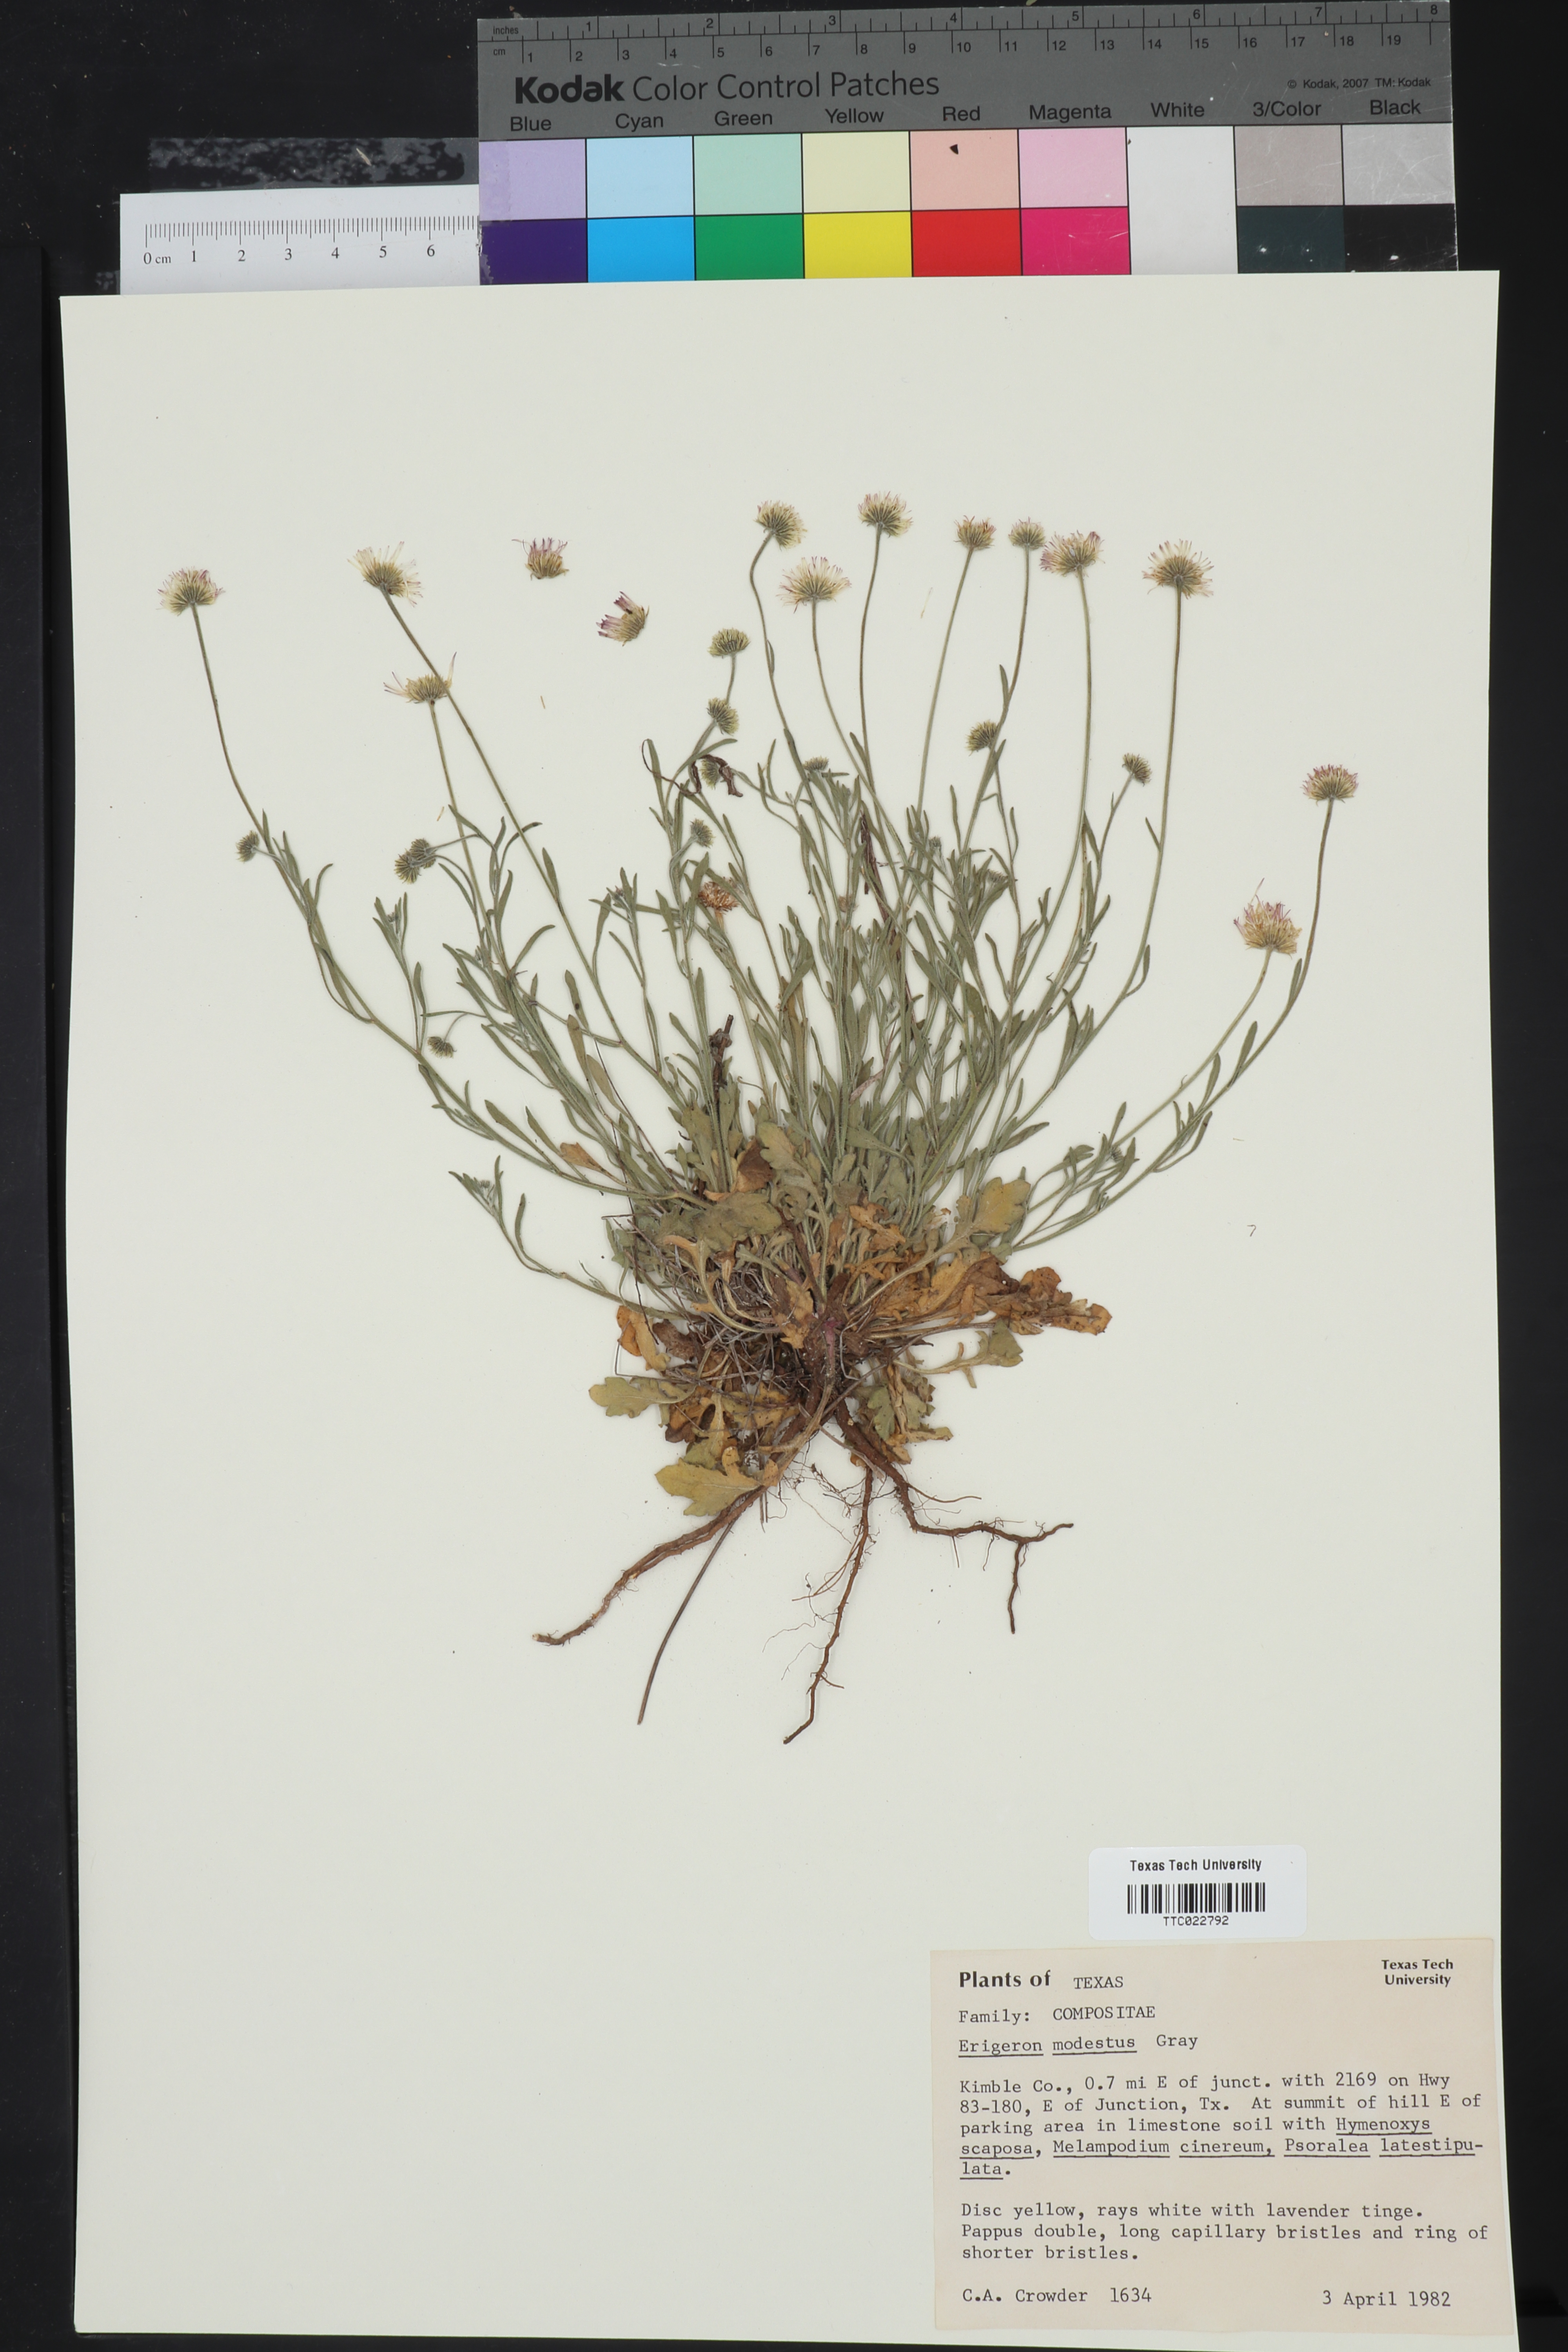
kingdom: Plantae
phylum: Tracheophyta
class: Magnoliopsida
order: Asterales
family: Asteraceae
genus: Erigeron
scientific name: Erigeron modestus
